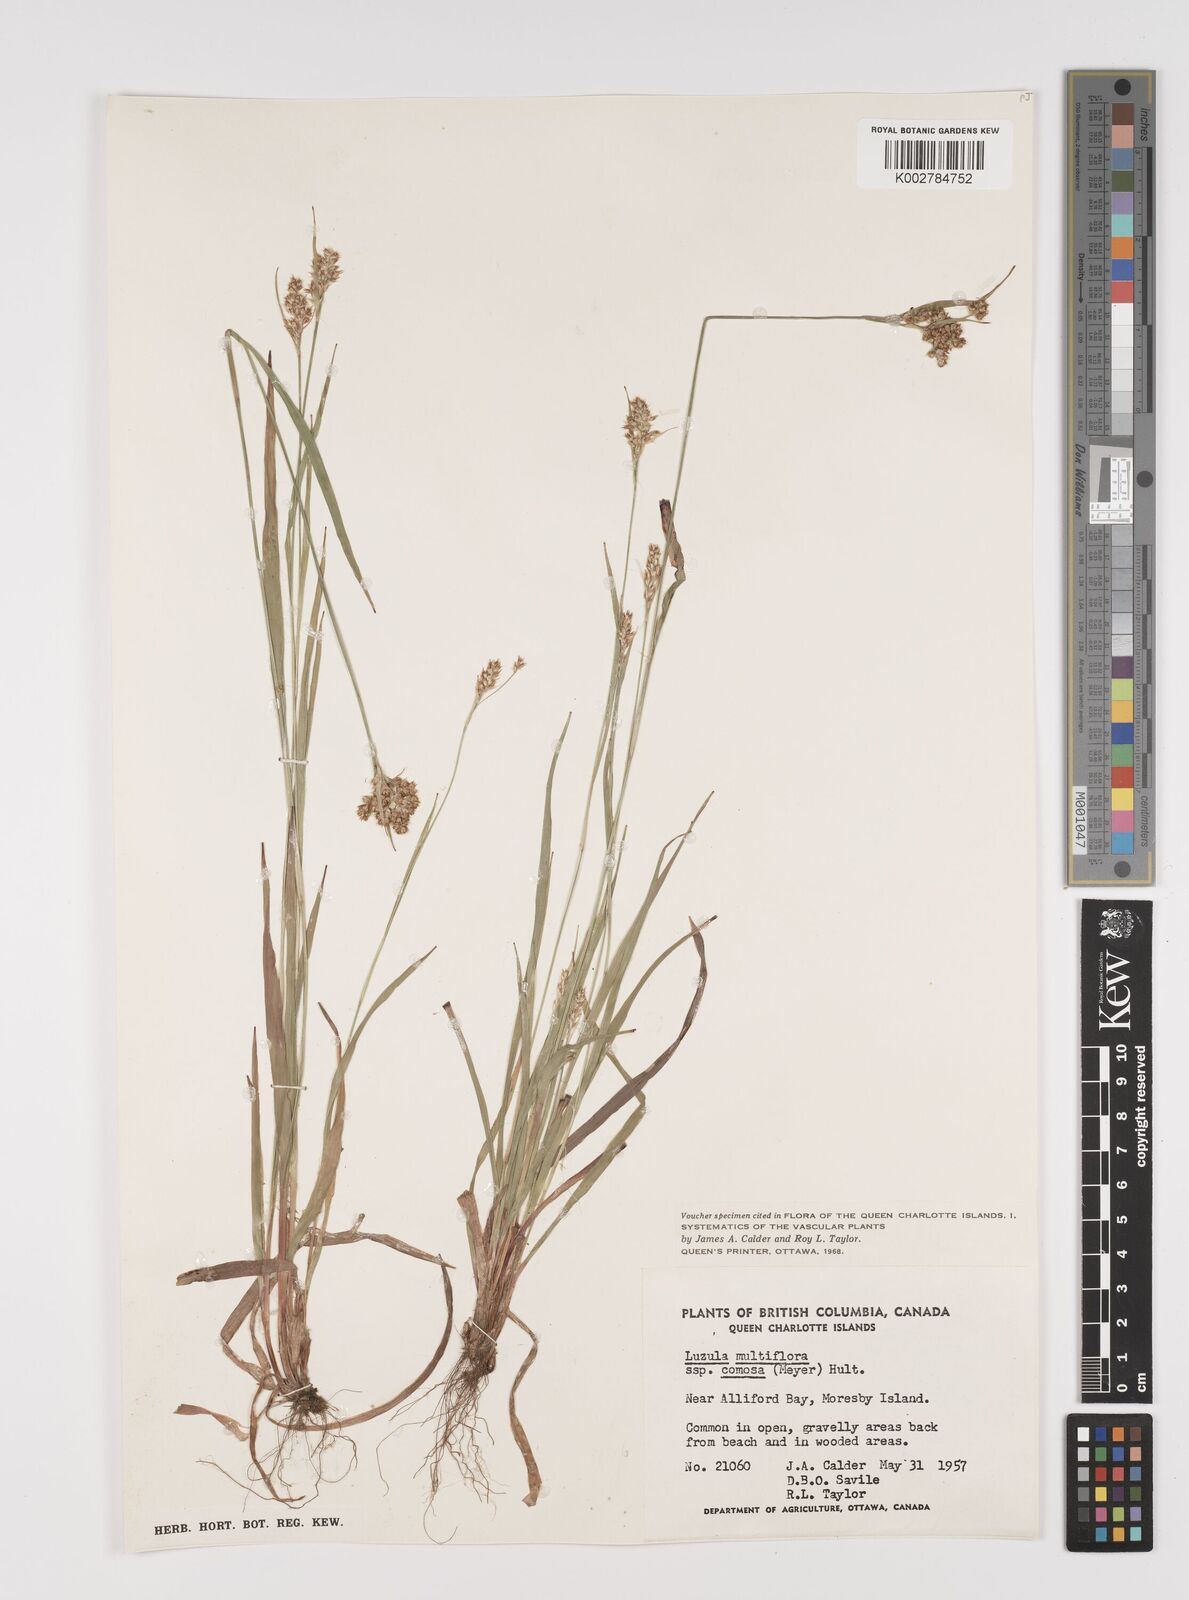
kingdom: Plantae
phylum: Tracheophyta
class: Liliopsida
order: Poales
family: Juncaceae
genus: Luzula
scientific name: Luzula
